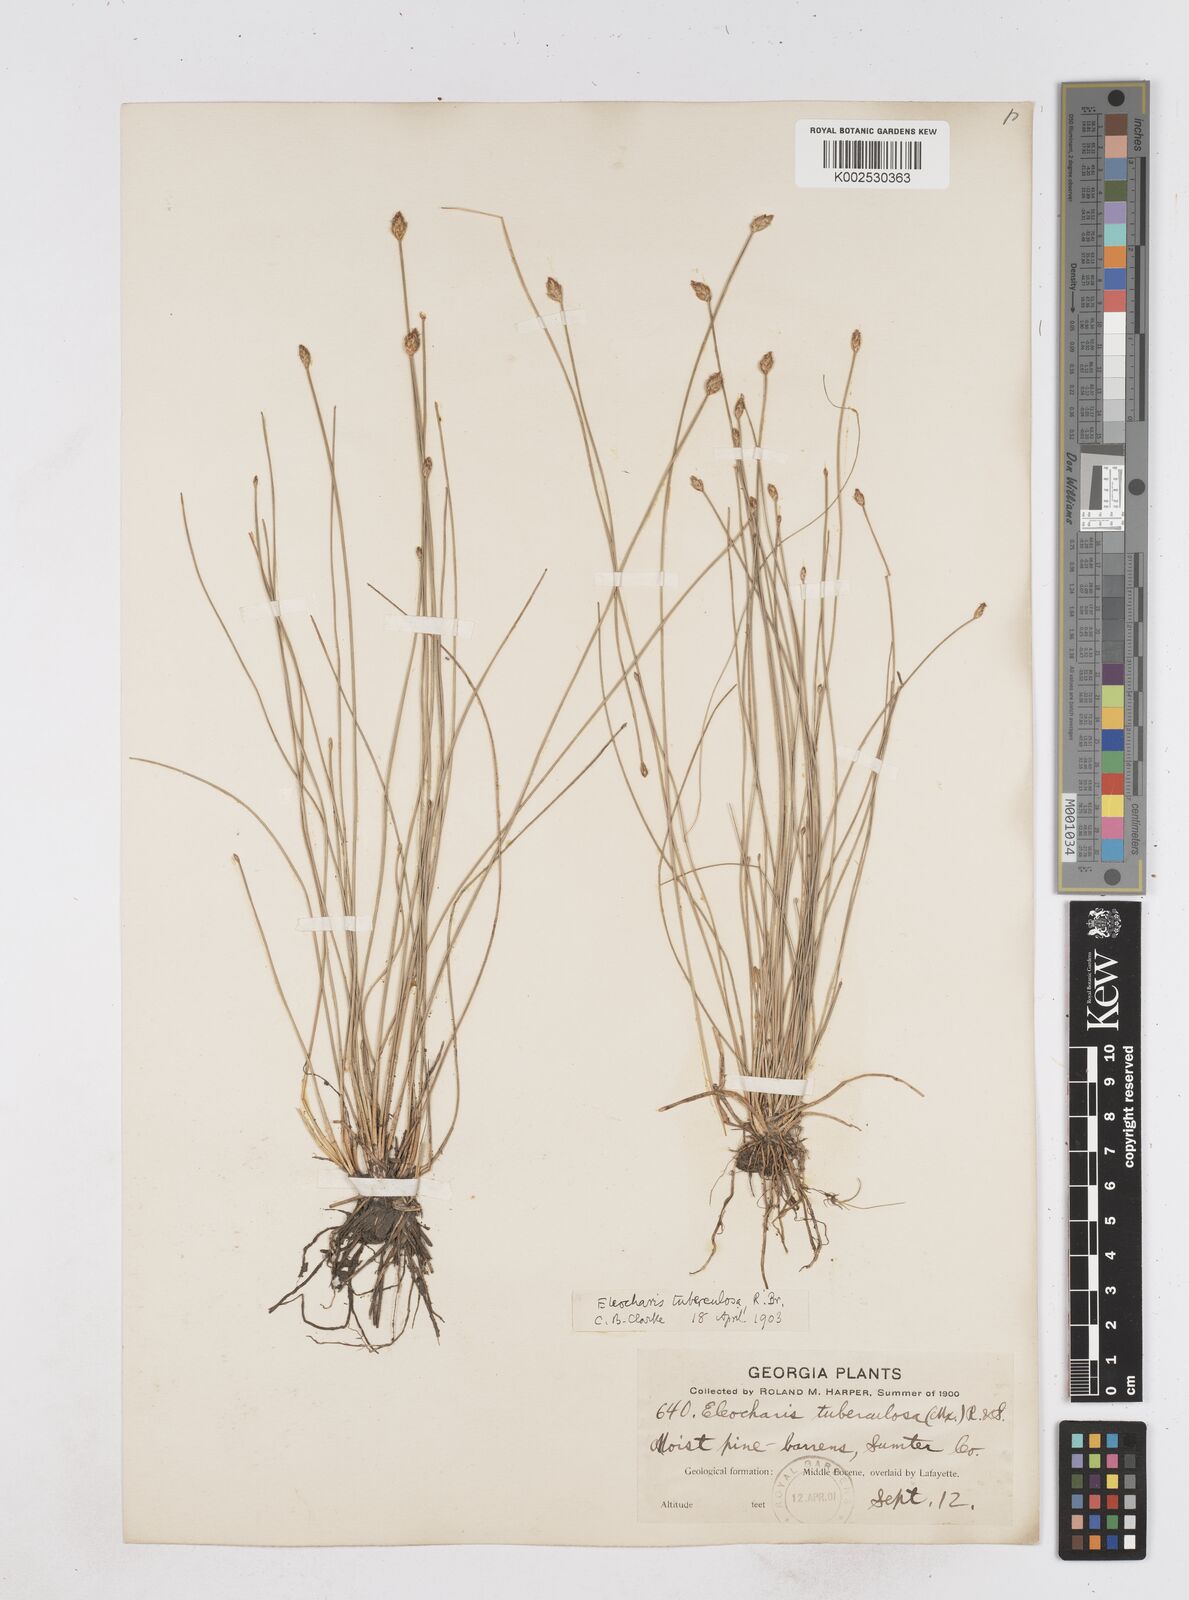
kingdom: Plantae
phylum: Tracheophyta
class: Liliopsida
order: Poales
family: Cyperaceae
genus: Eleocharis
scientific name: Eleocharis tuberculosa
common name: Cone-cup spikerush
